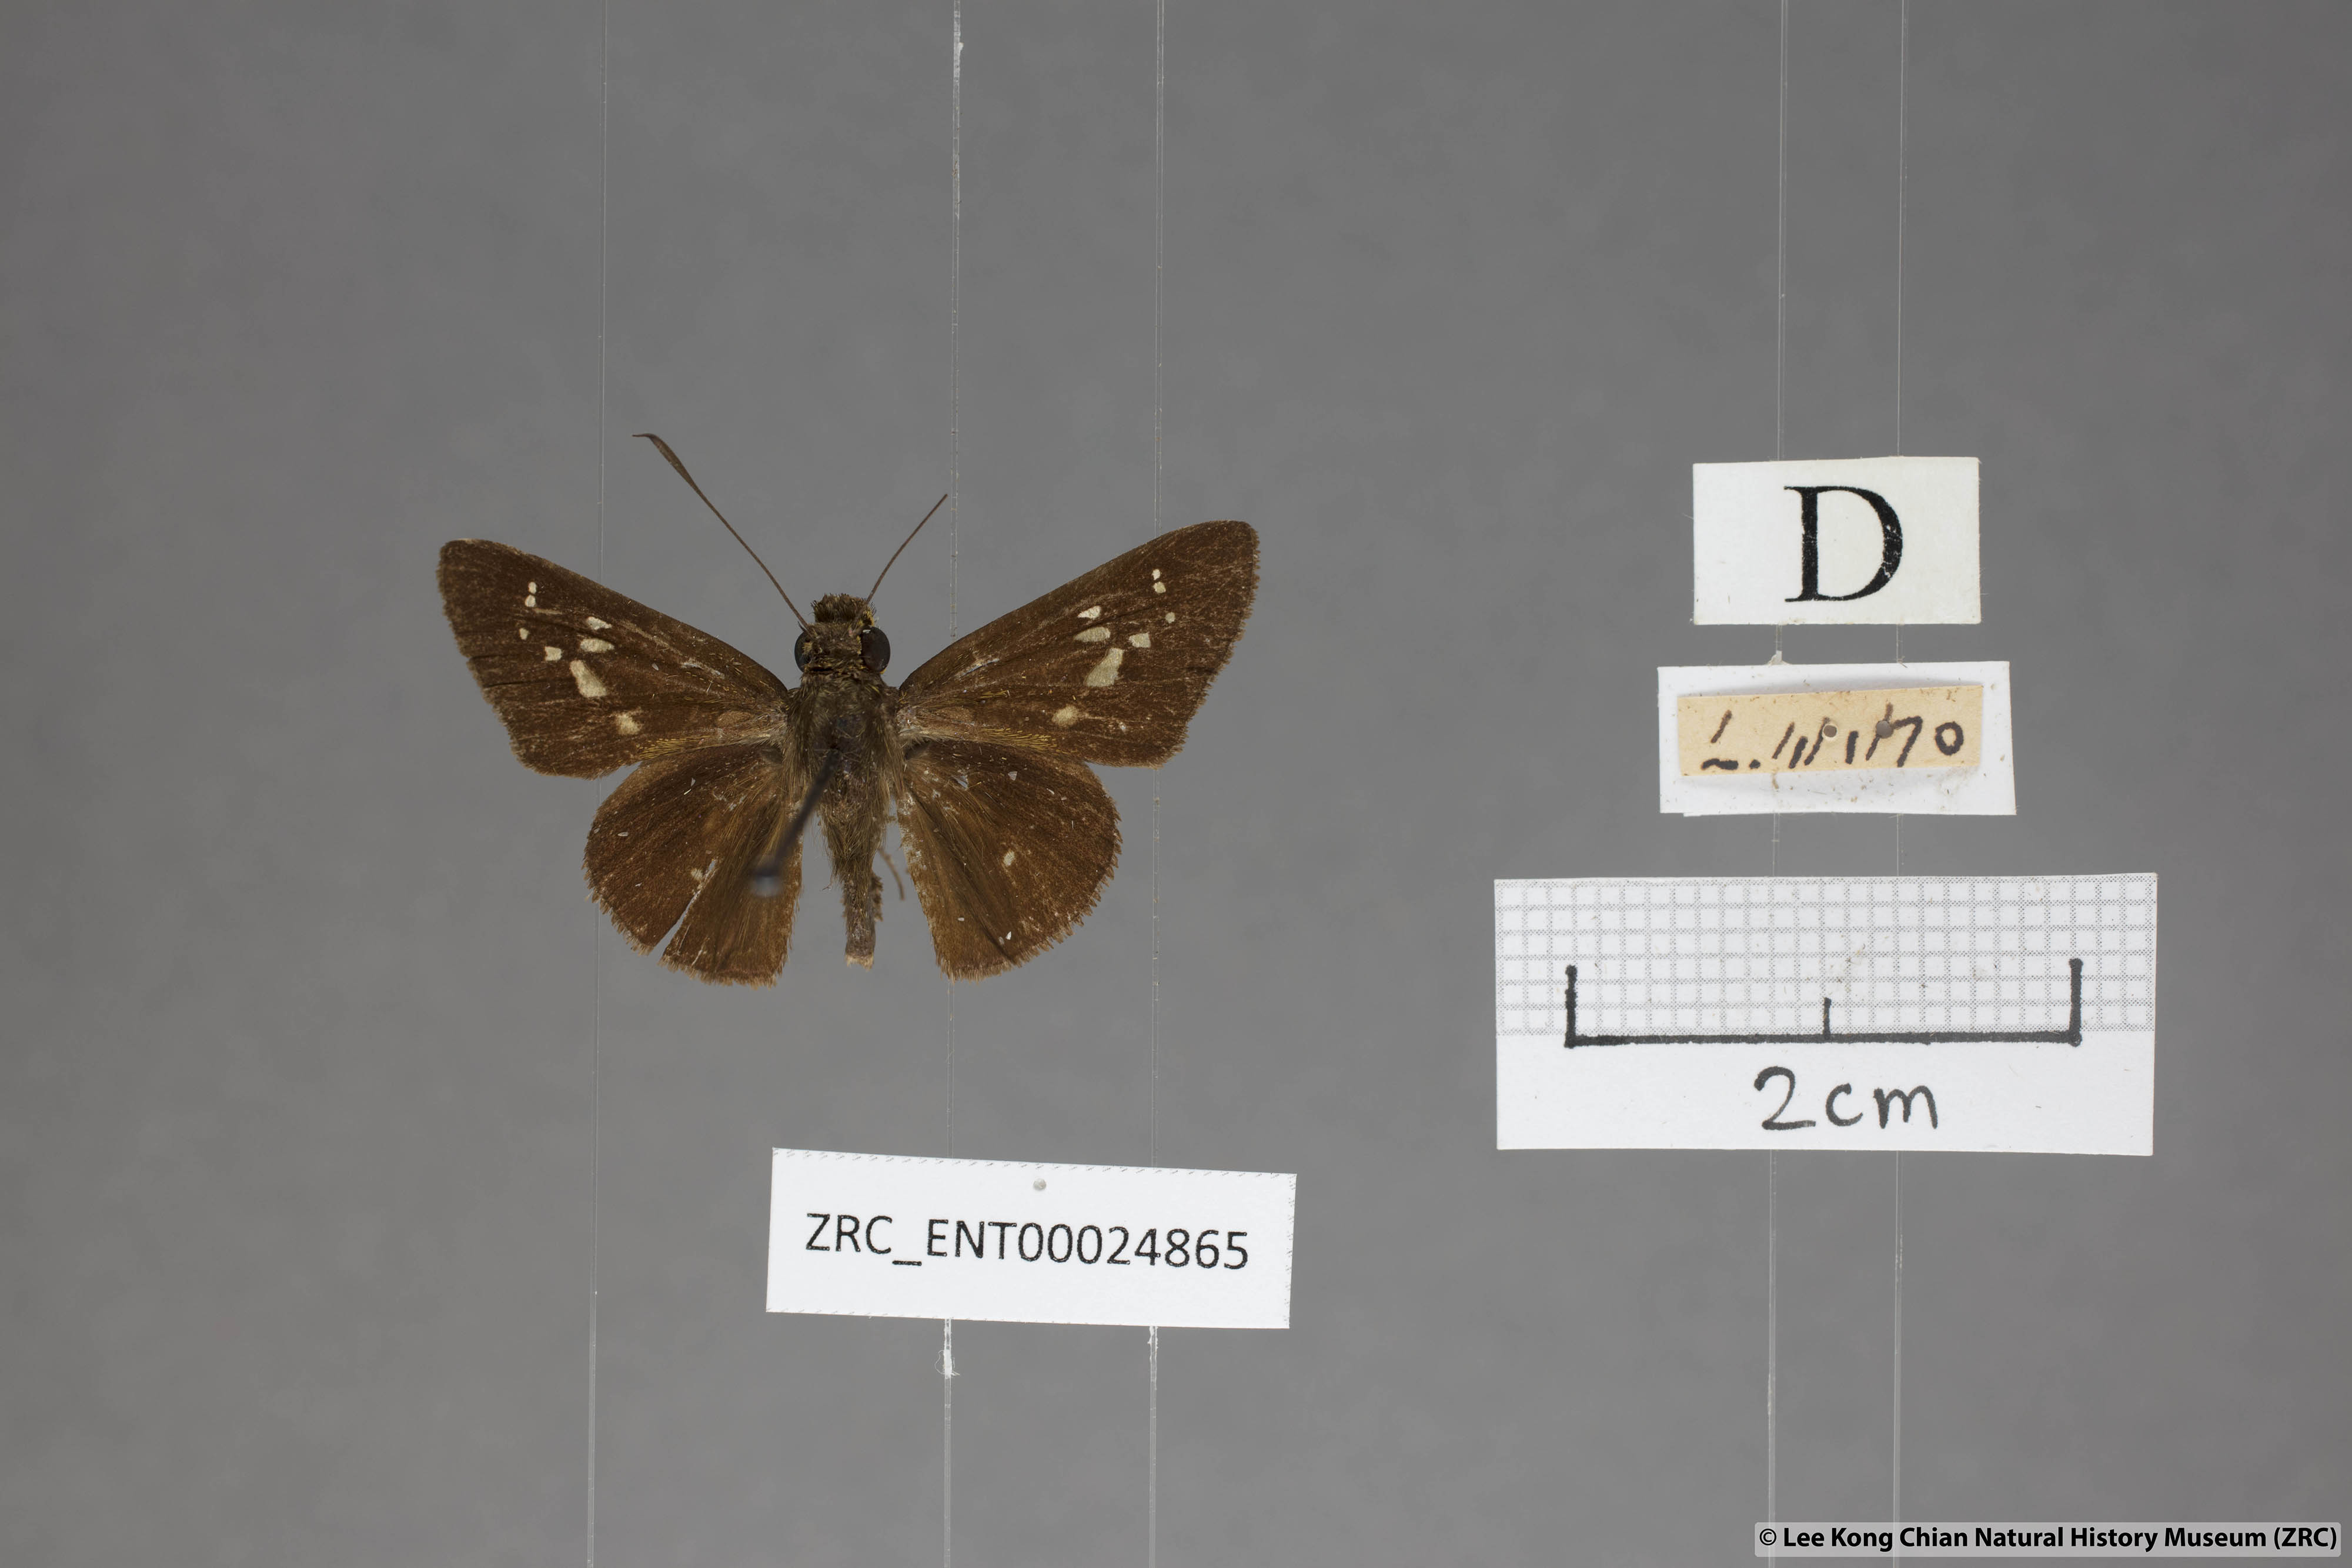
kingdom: Animalia
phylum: Arthropoda
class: Insecta
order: Lepidoptera
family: Hesperiidae
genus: Isma
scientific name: Isma miosticta
